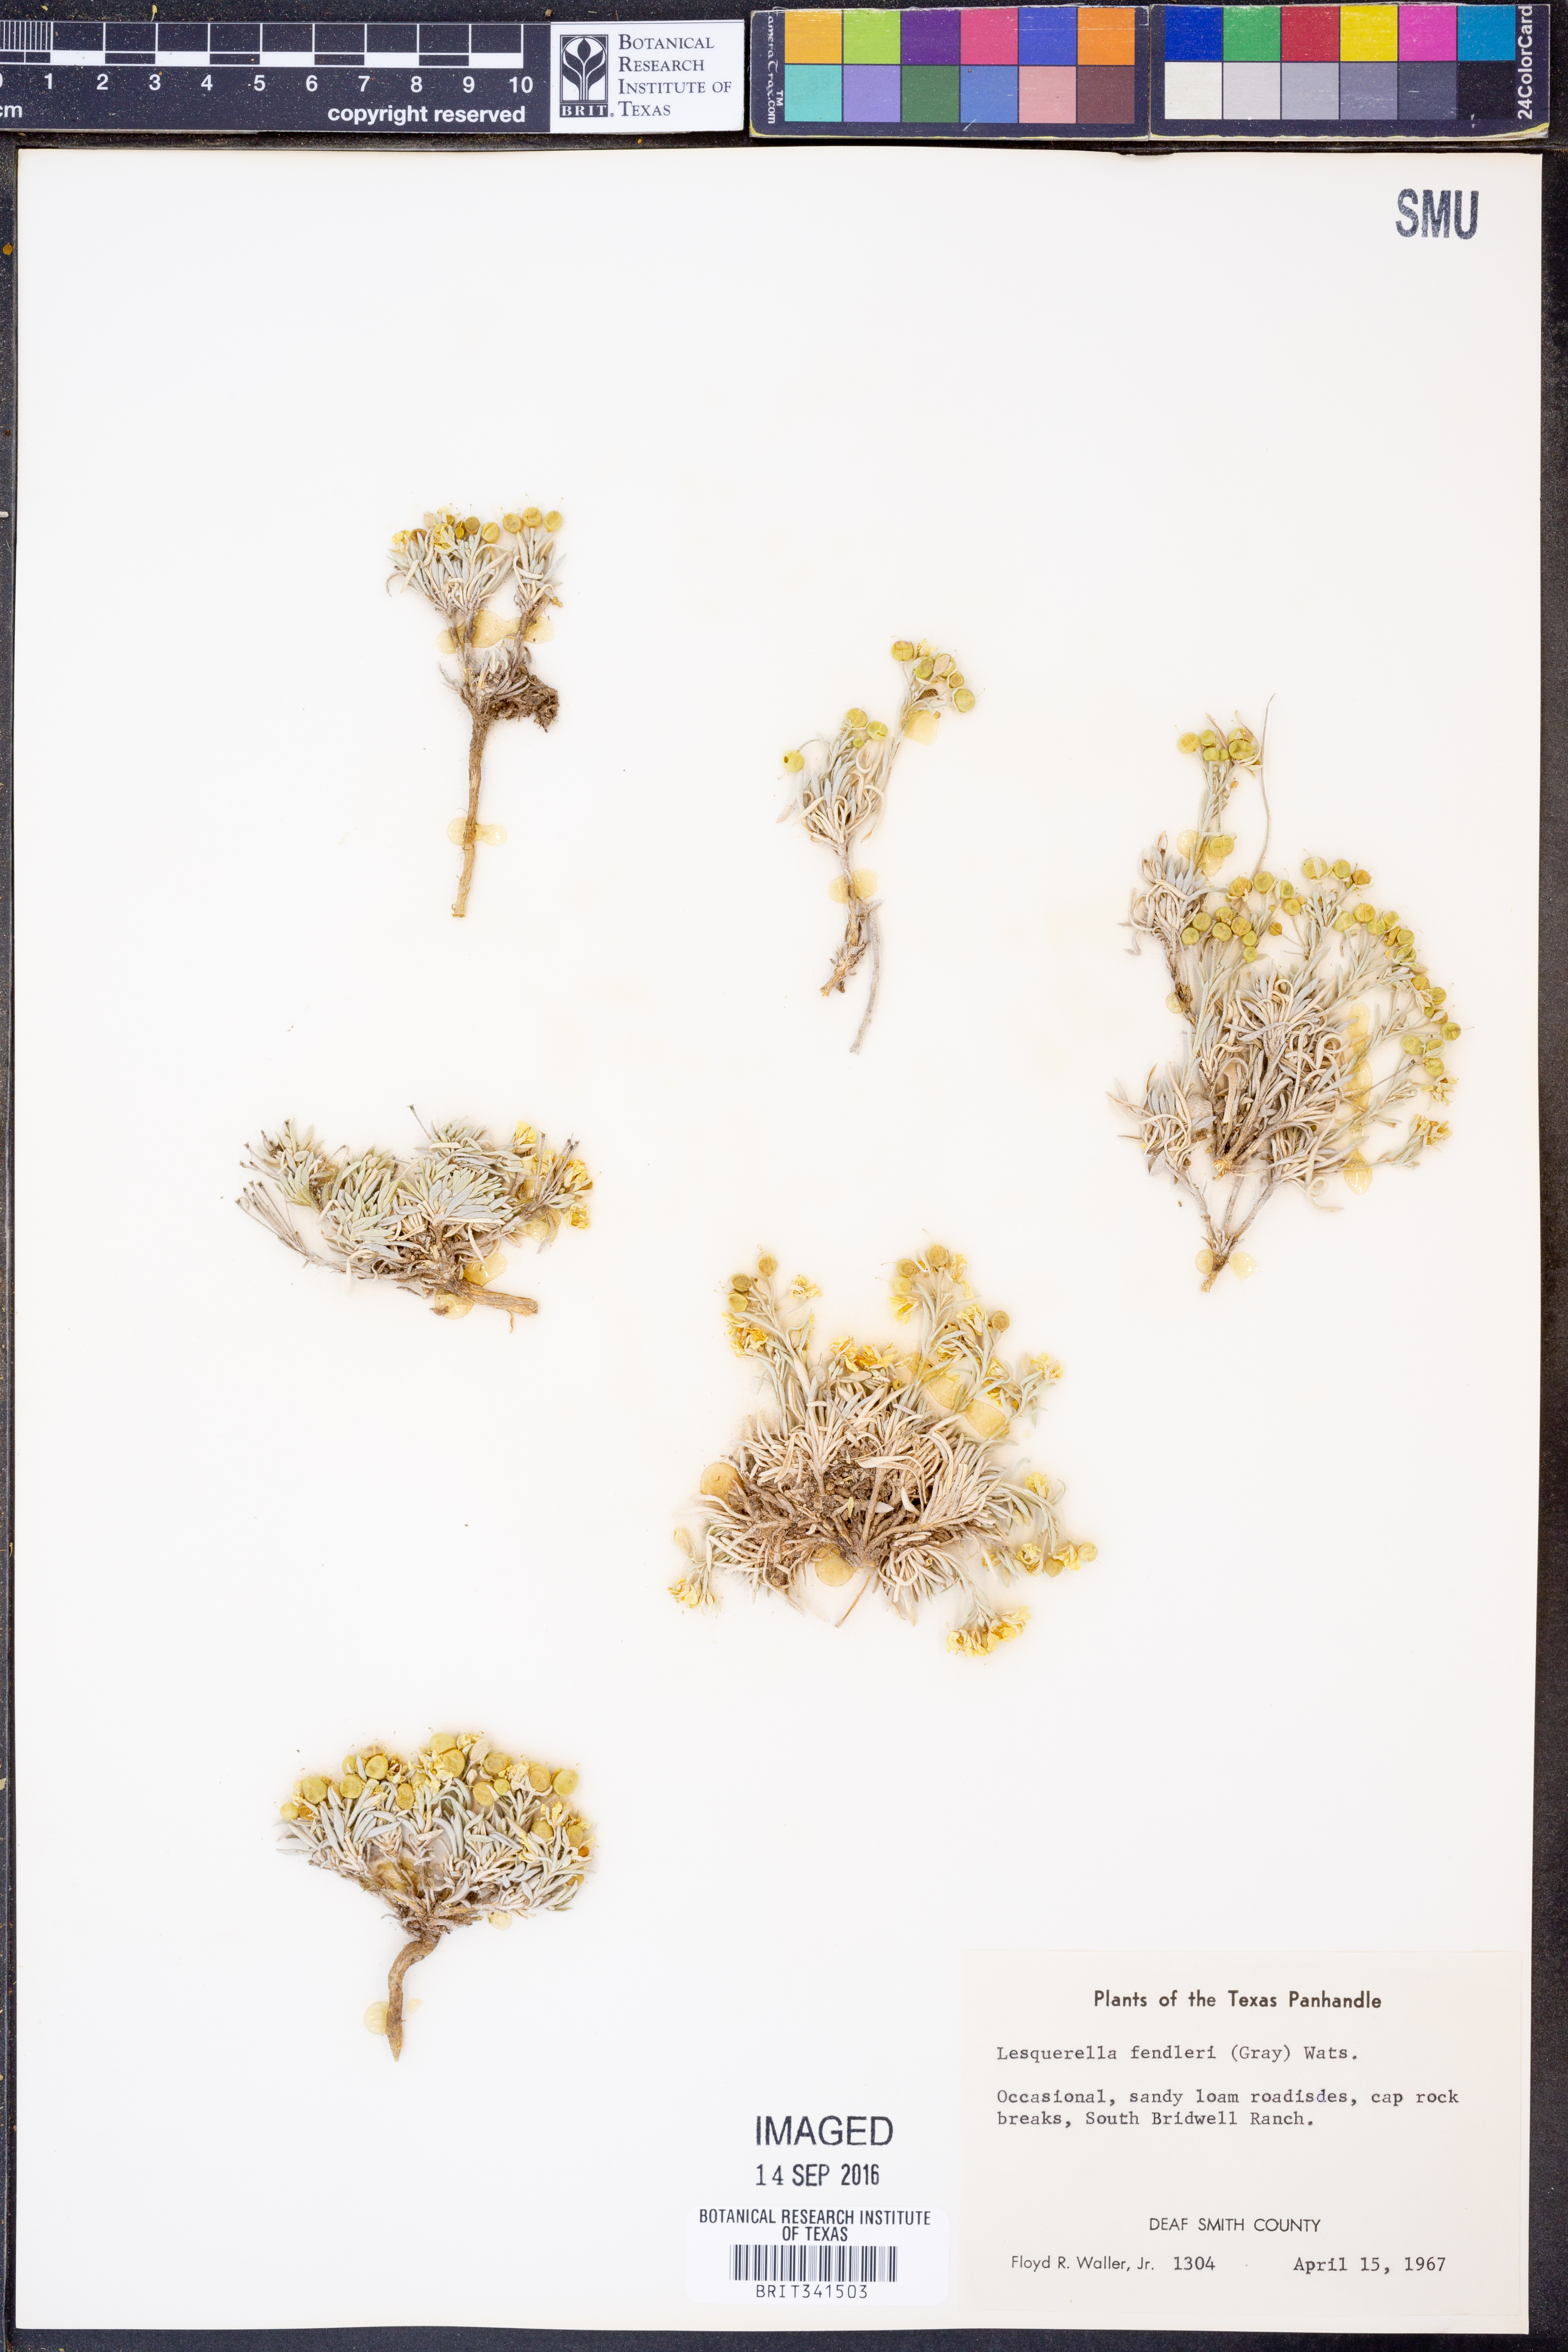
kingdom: Plantae
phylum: Tracheophyta
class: Magnoliopsida
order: Brassicales
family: Brassicaceae
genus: Physaria
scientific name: Physaria fendleri
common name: Fendler's bladderpod
